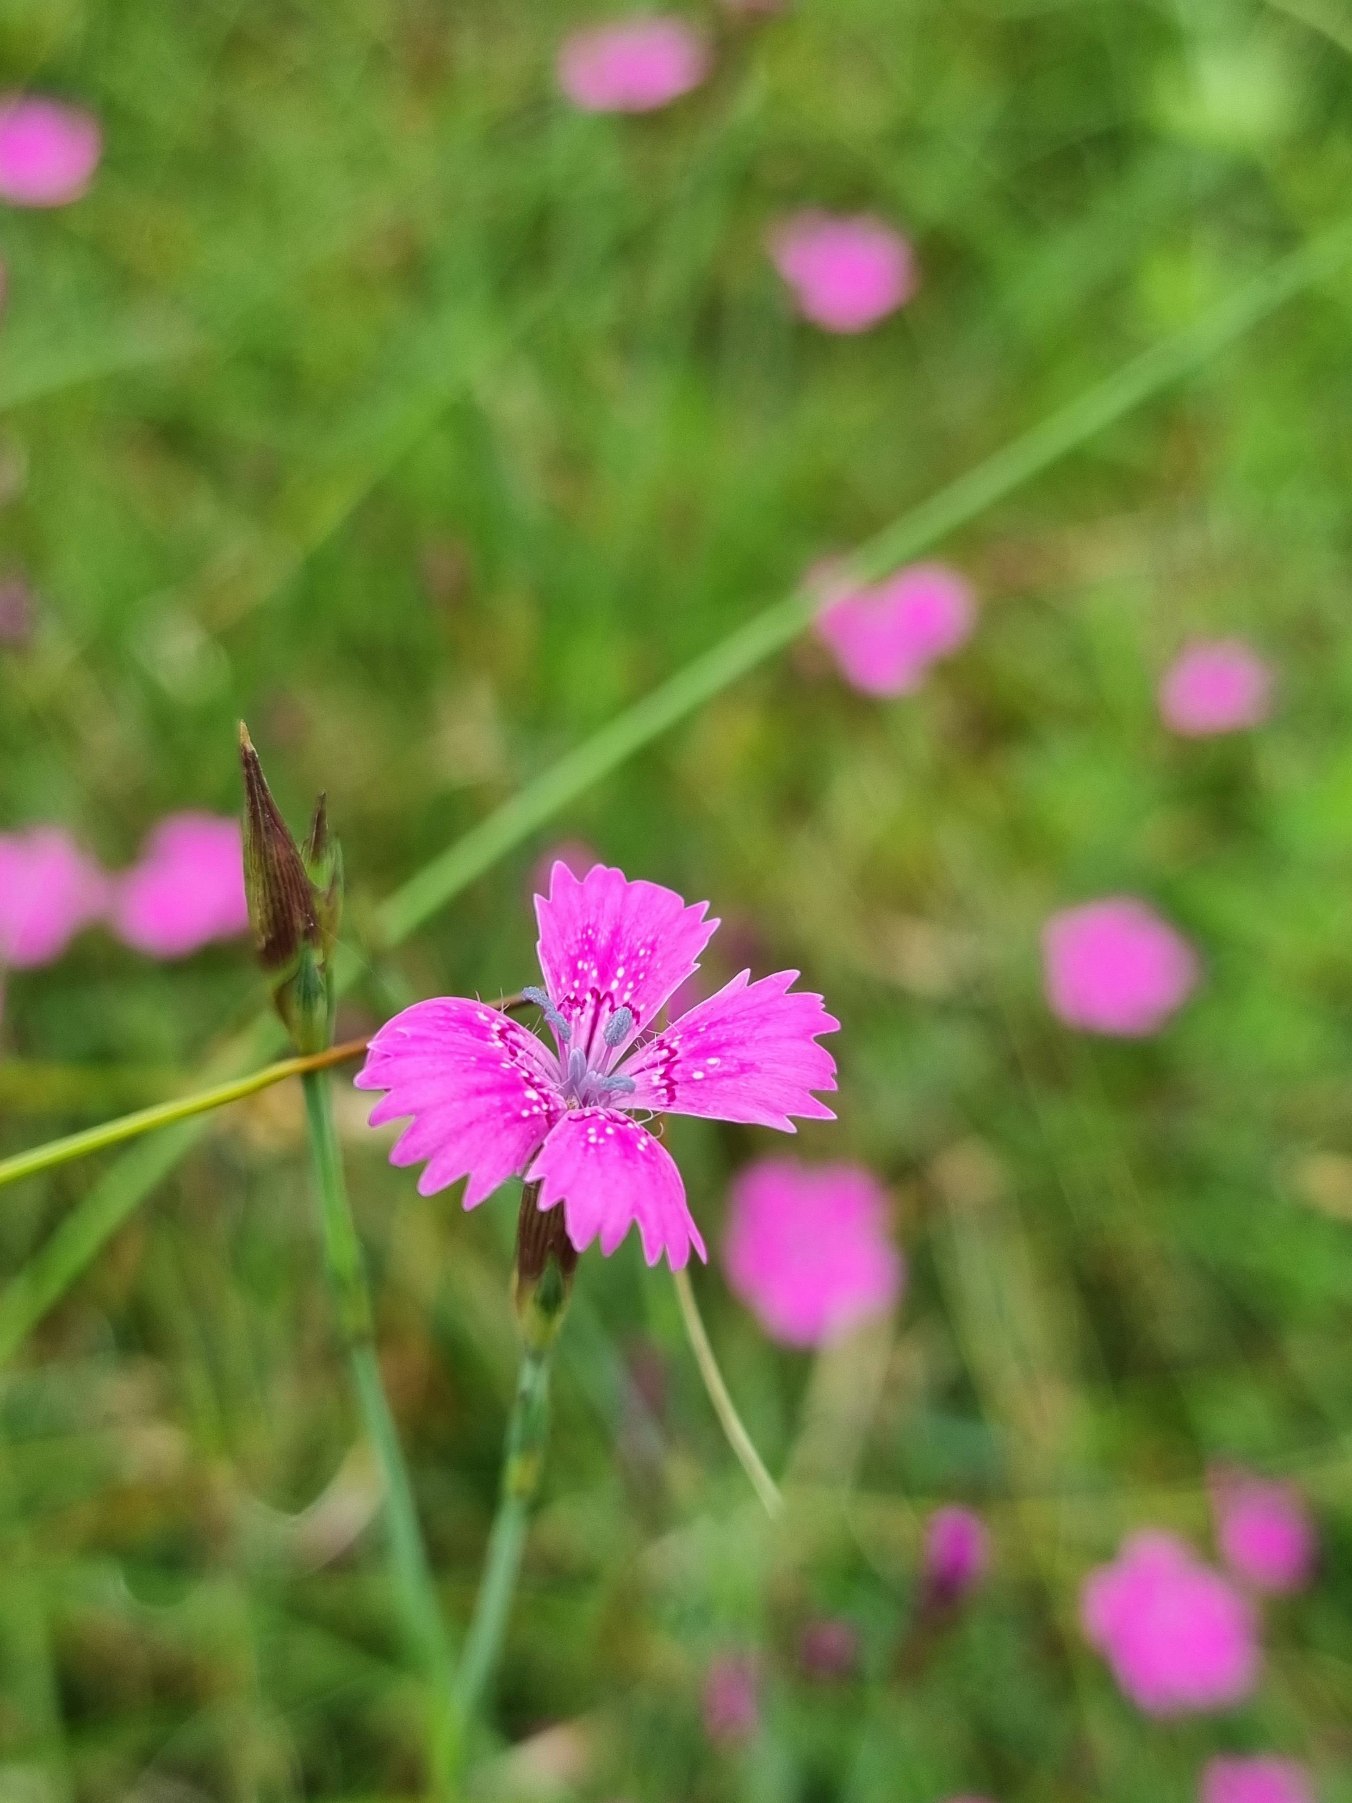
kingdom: Plantae
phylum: Tracheophyta
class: Magnoliopsida
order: Caryophyllales
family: Caryophyllaceae
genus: Dianthus
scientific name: Dianthus deltoides
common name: Bakke-nellike
